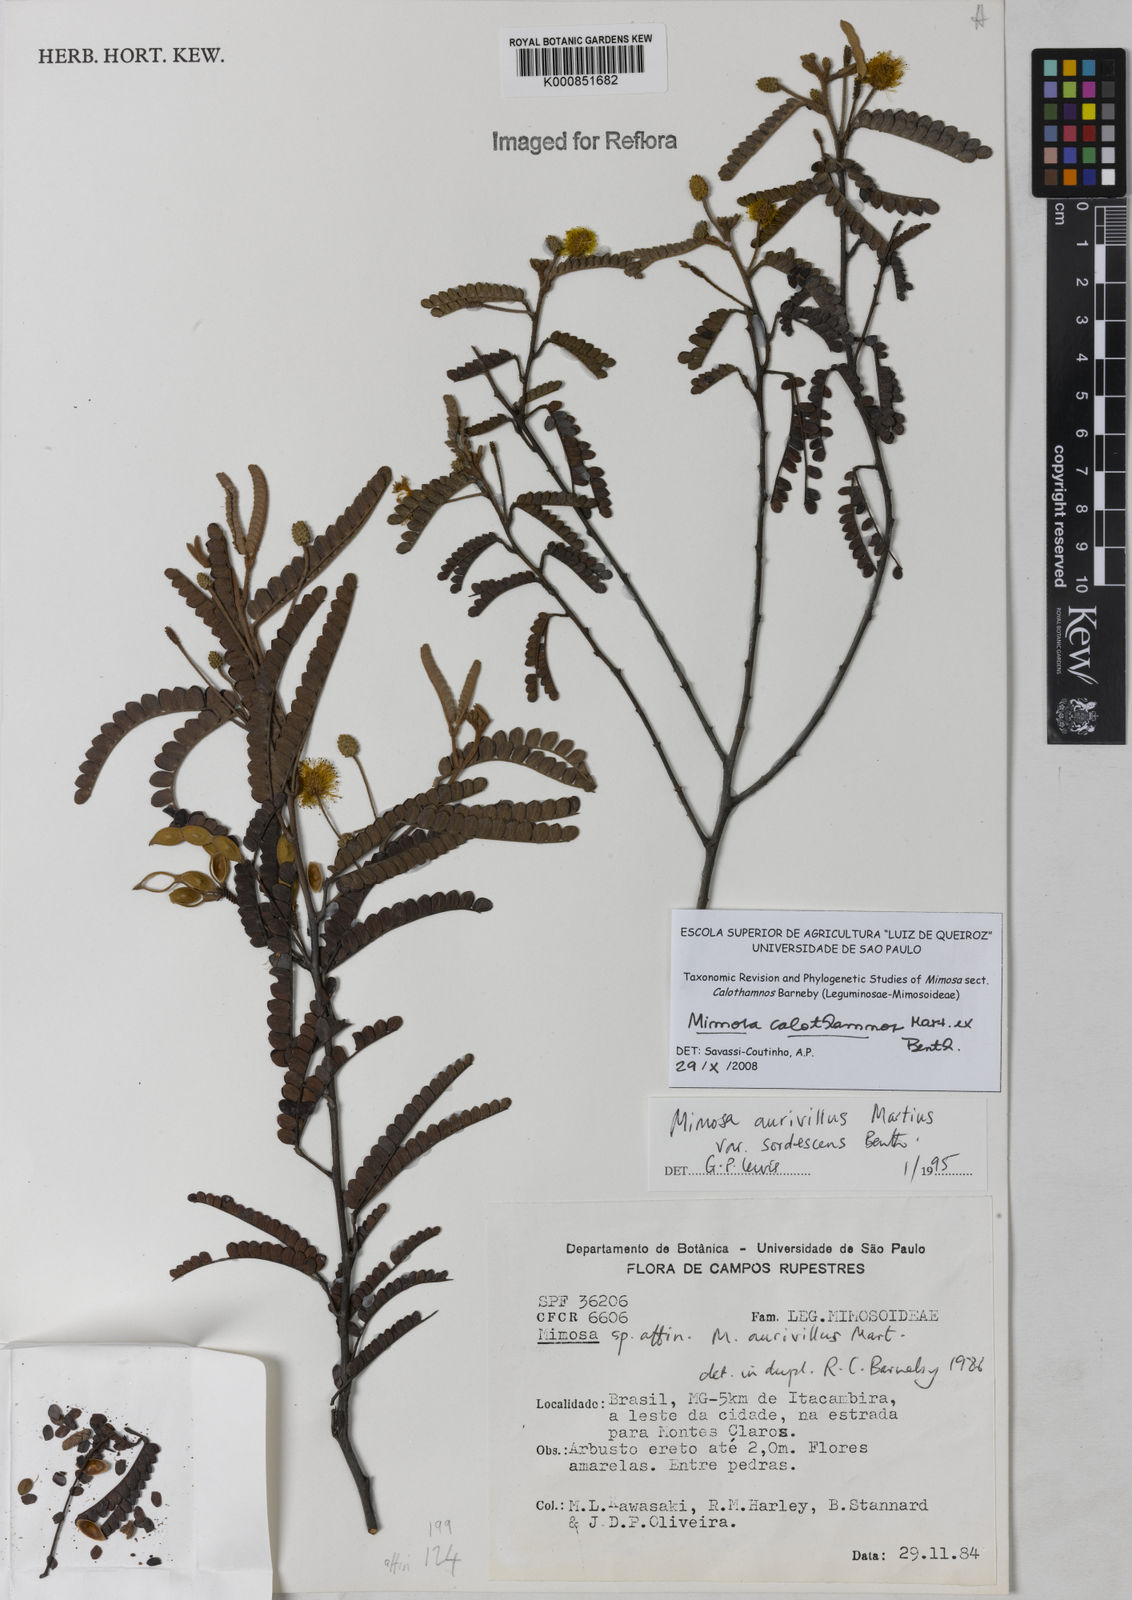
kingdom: Plantae
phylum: Tracheophyta
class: Magnoliopsida
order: Fabales
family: Fabaceae
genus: Mimosa
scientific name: Mimosa aurivillus
